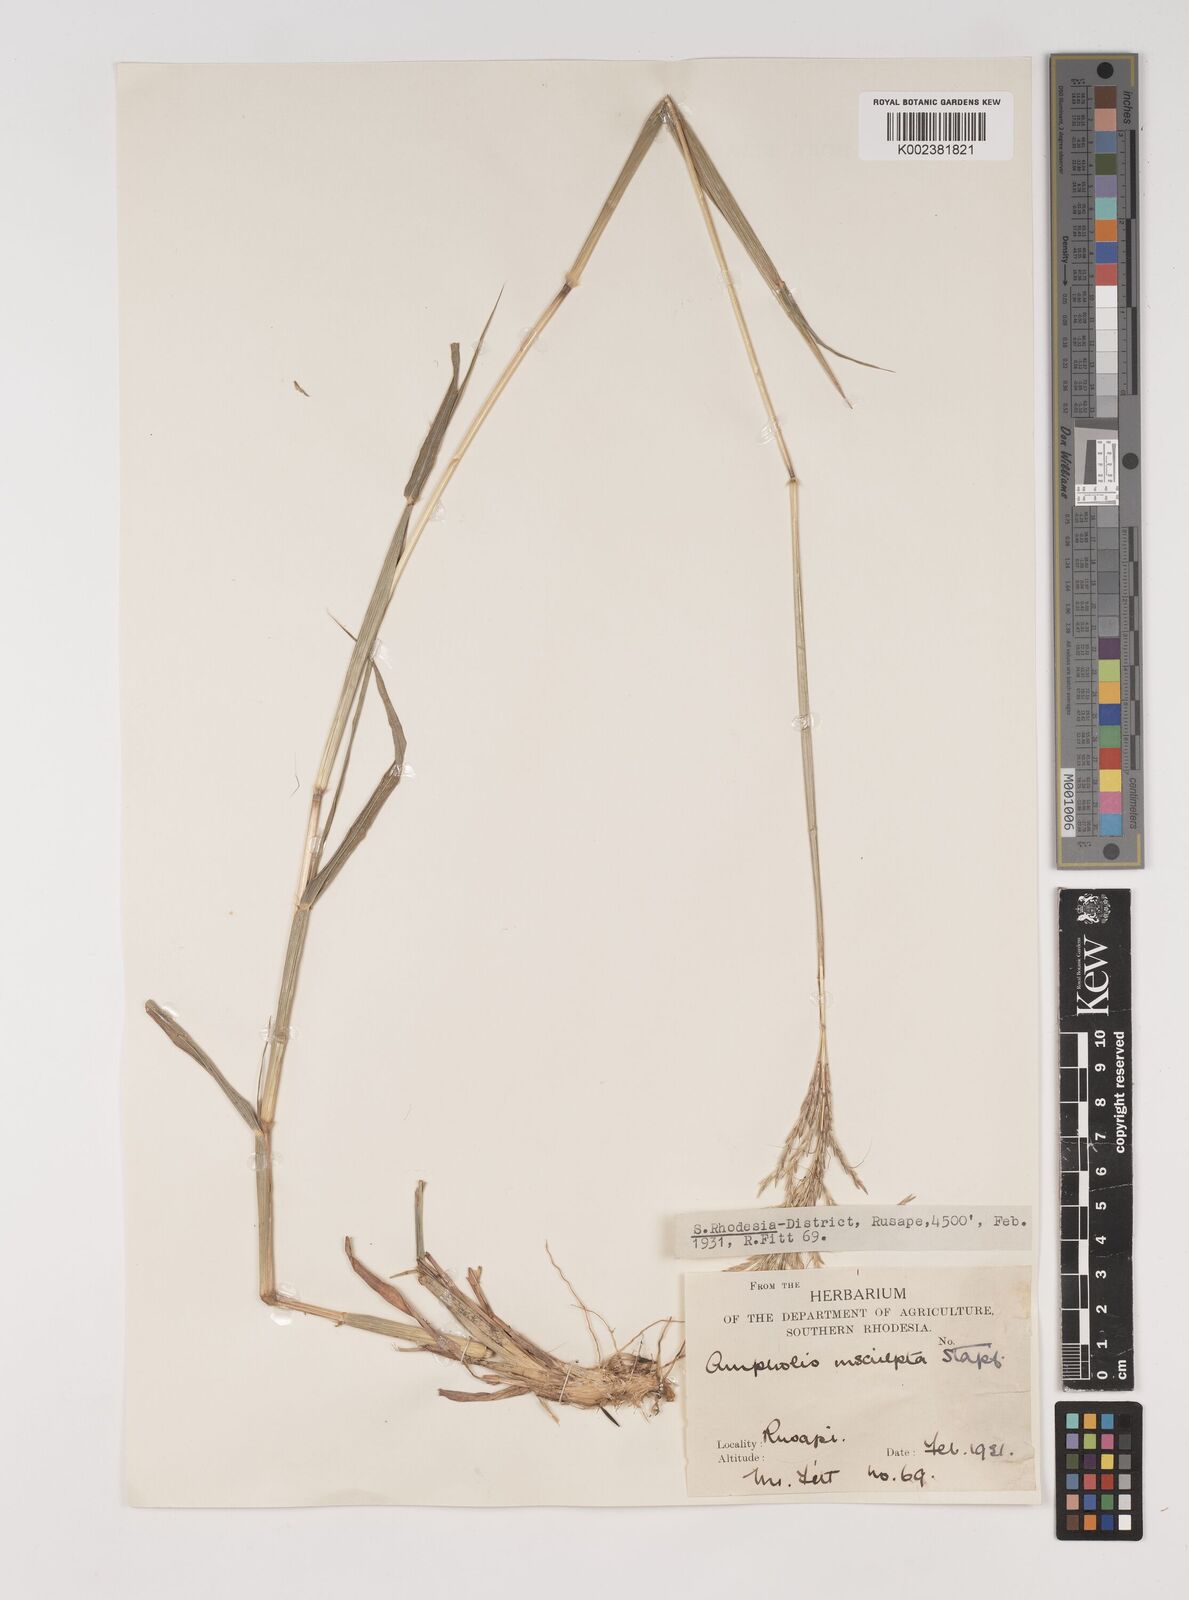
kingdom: Plantae
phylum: Tracheophyta
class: Liliopsida
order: Poales
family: Poaceae
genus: Bothriochloa
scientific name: Bothriochloa bladhii
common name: Caucasian bluestem
